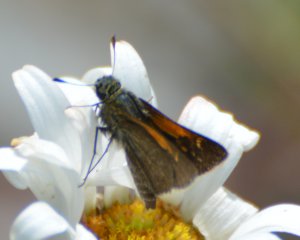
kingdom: Animalia
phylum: Arthropoda
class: Insecta
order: Lepidoptera
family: Hesperiidae
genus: Polites
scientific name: Polites themistocles
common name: Tawny-edged Skipper
